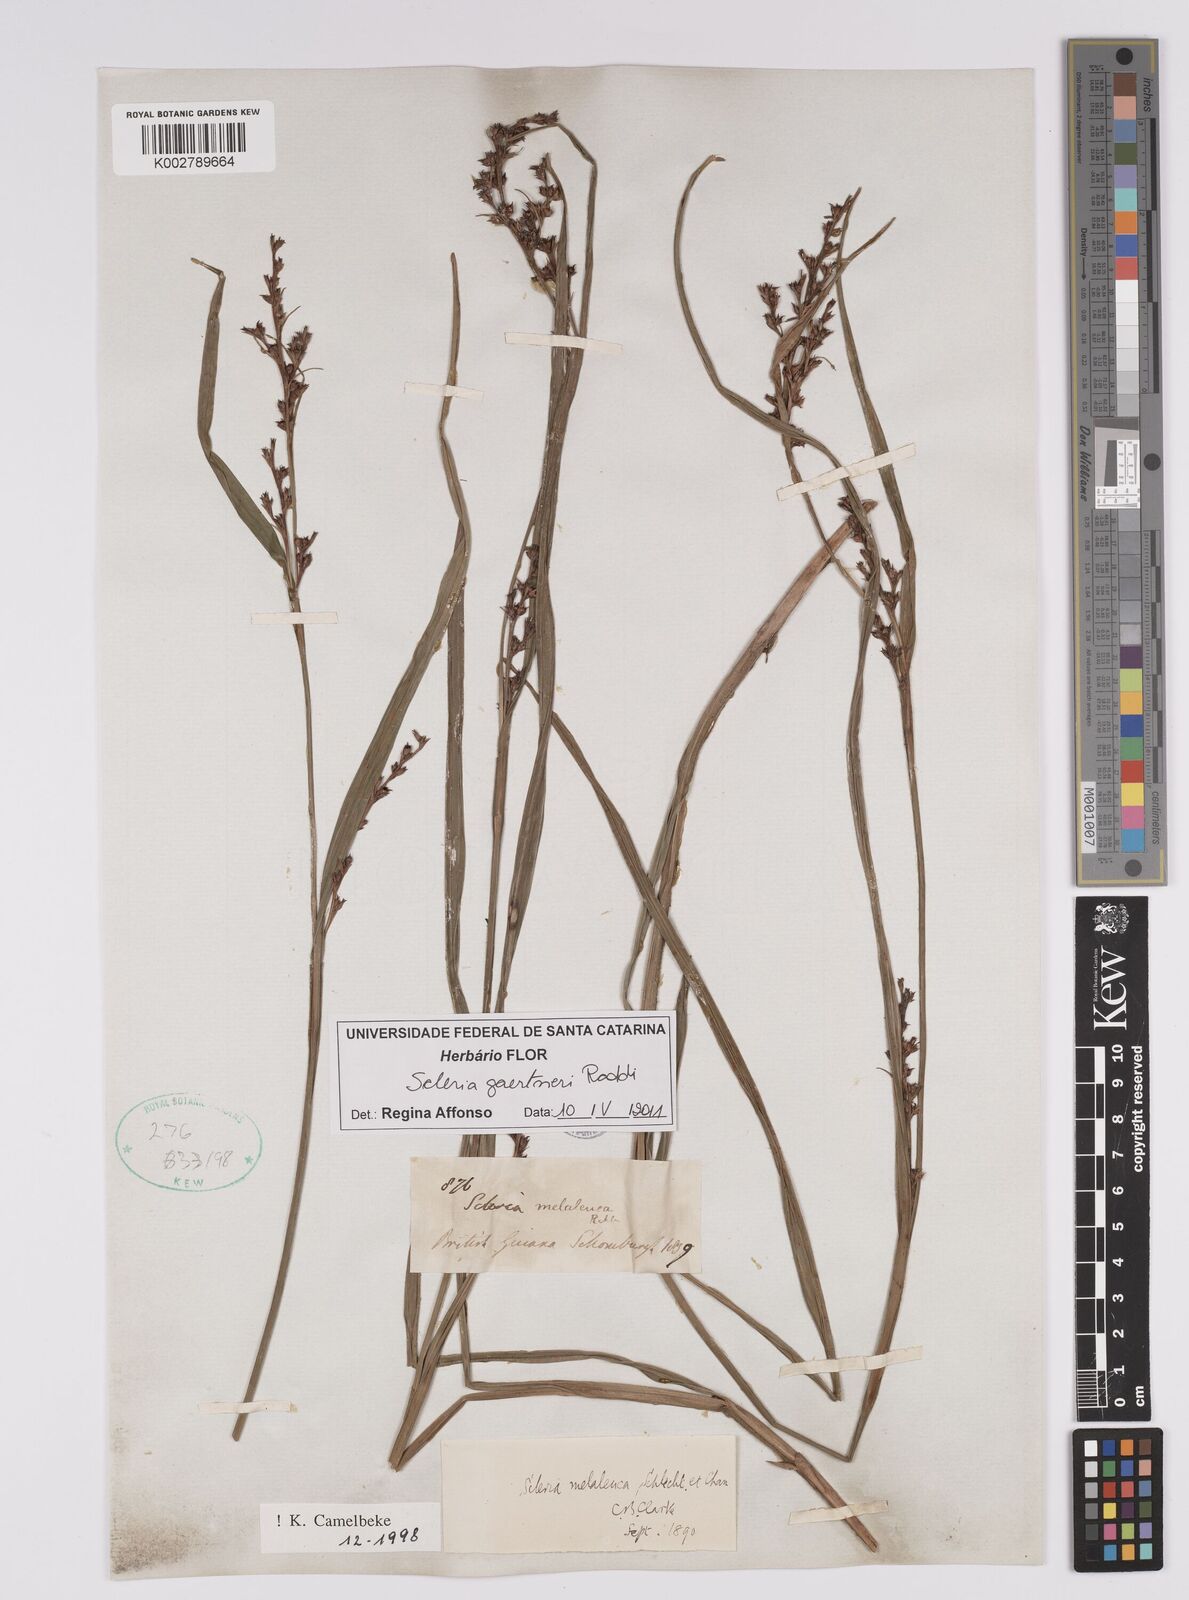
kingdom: Plantae
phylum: Tracheophyta
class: Liliopsida
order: Poales
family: Cyperaceae
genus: Scleria
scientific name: Scleria gaertneri
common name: Cortadera blanca
